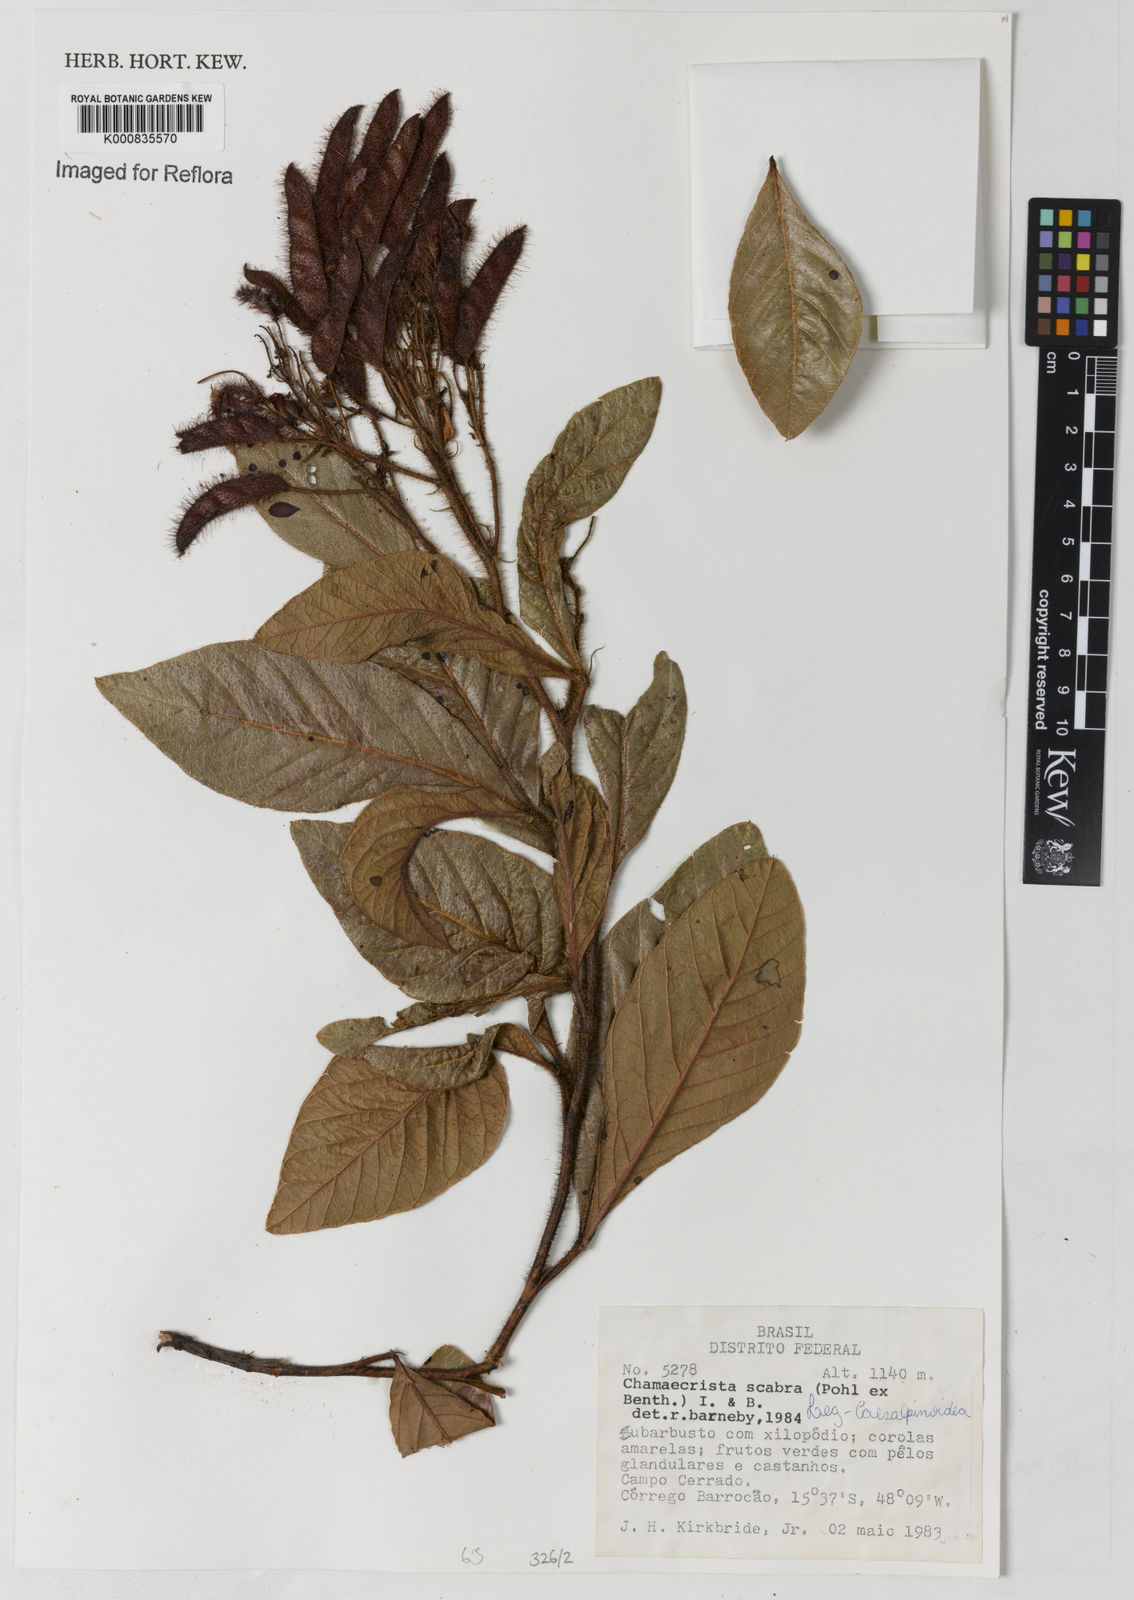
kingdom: Plantae
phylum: Tracheophyta
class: Magnoliopsida
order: Fabales
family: Fabaceae
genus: Chamaecrista
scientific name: Chamaecrista scabra
